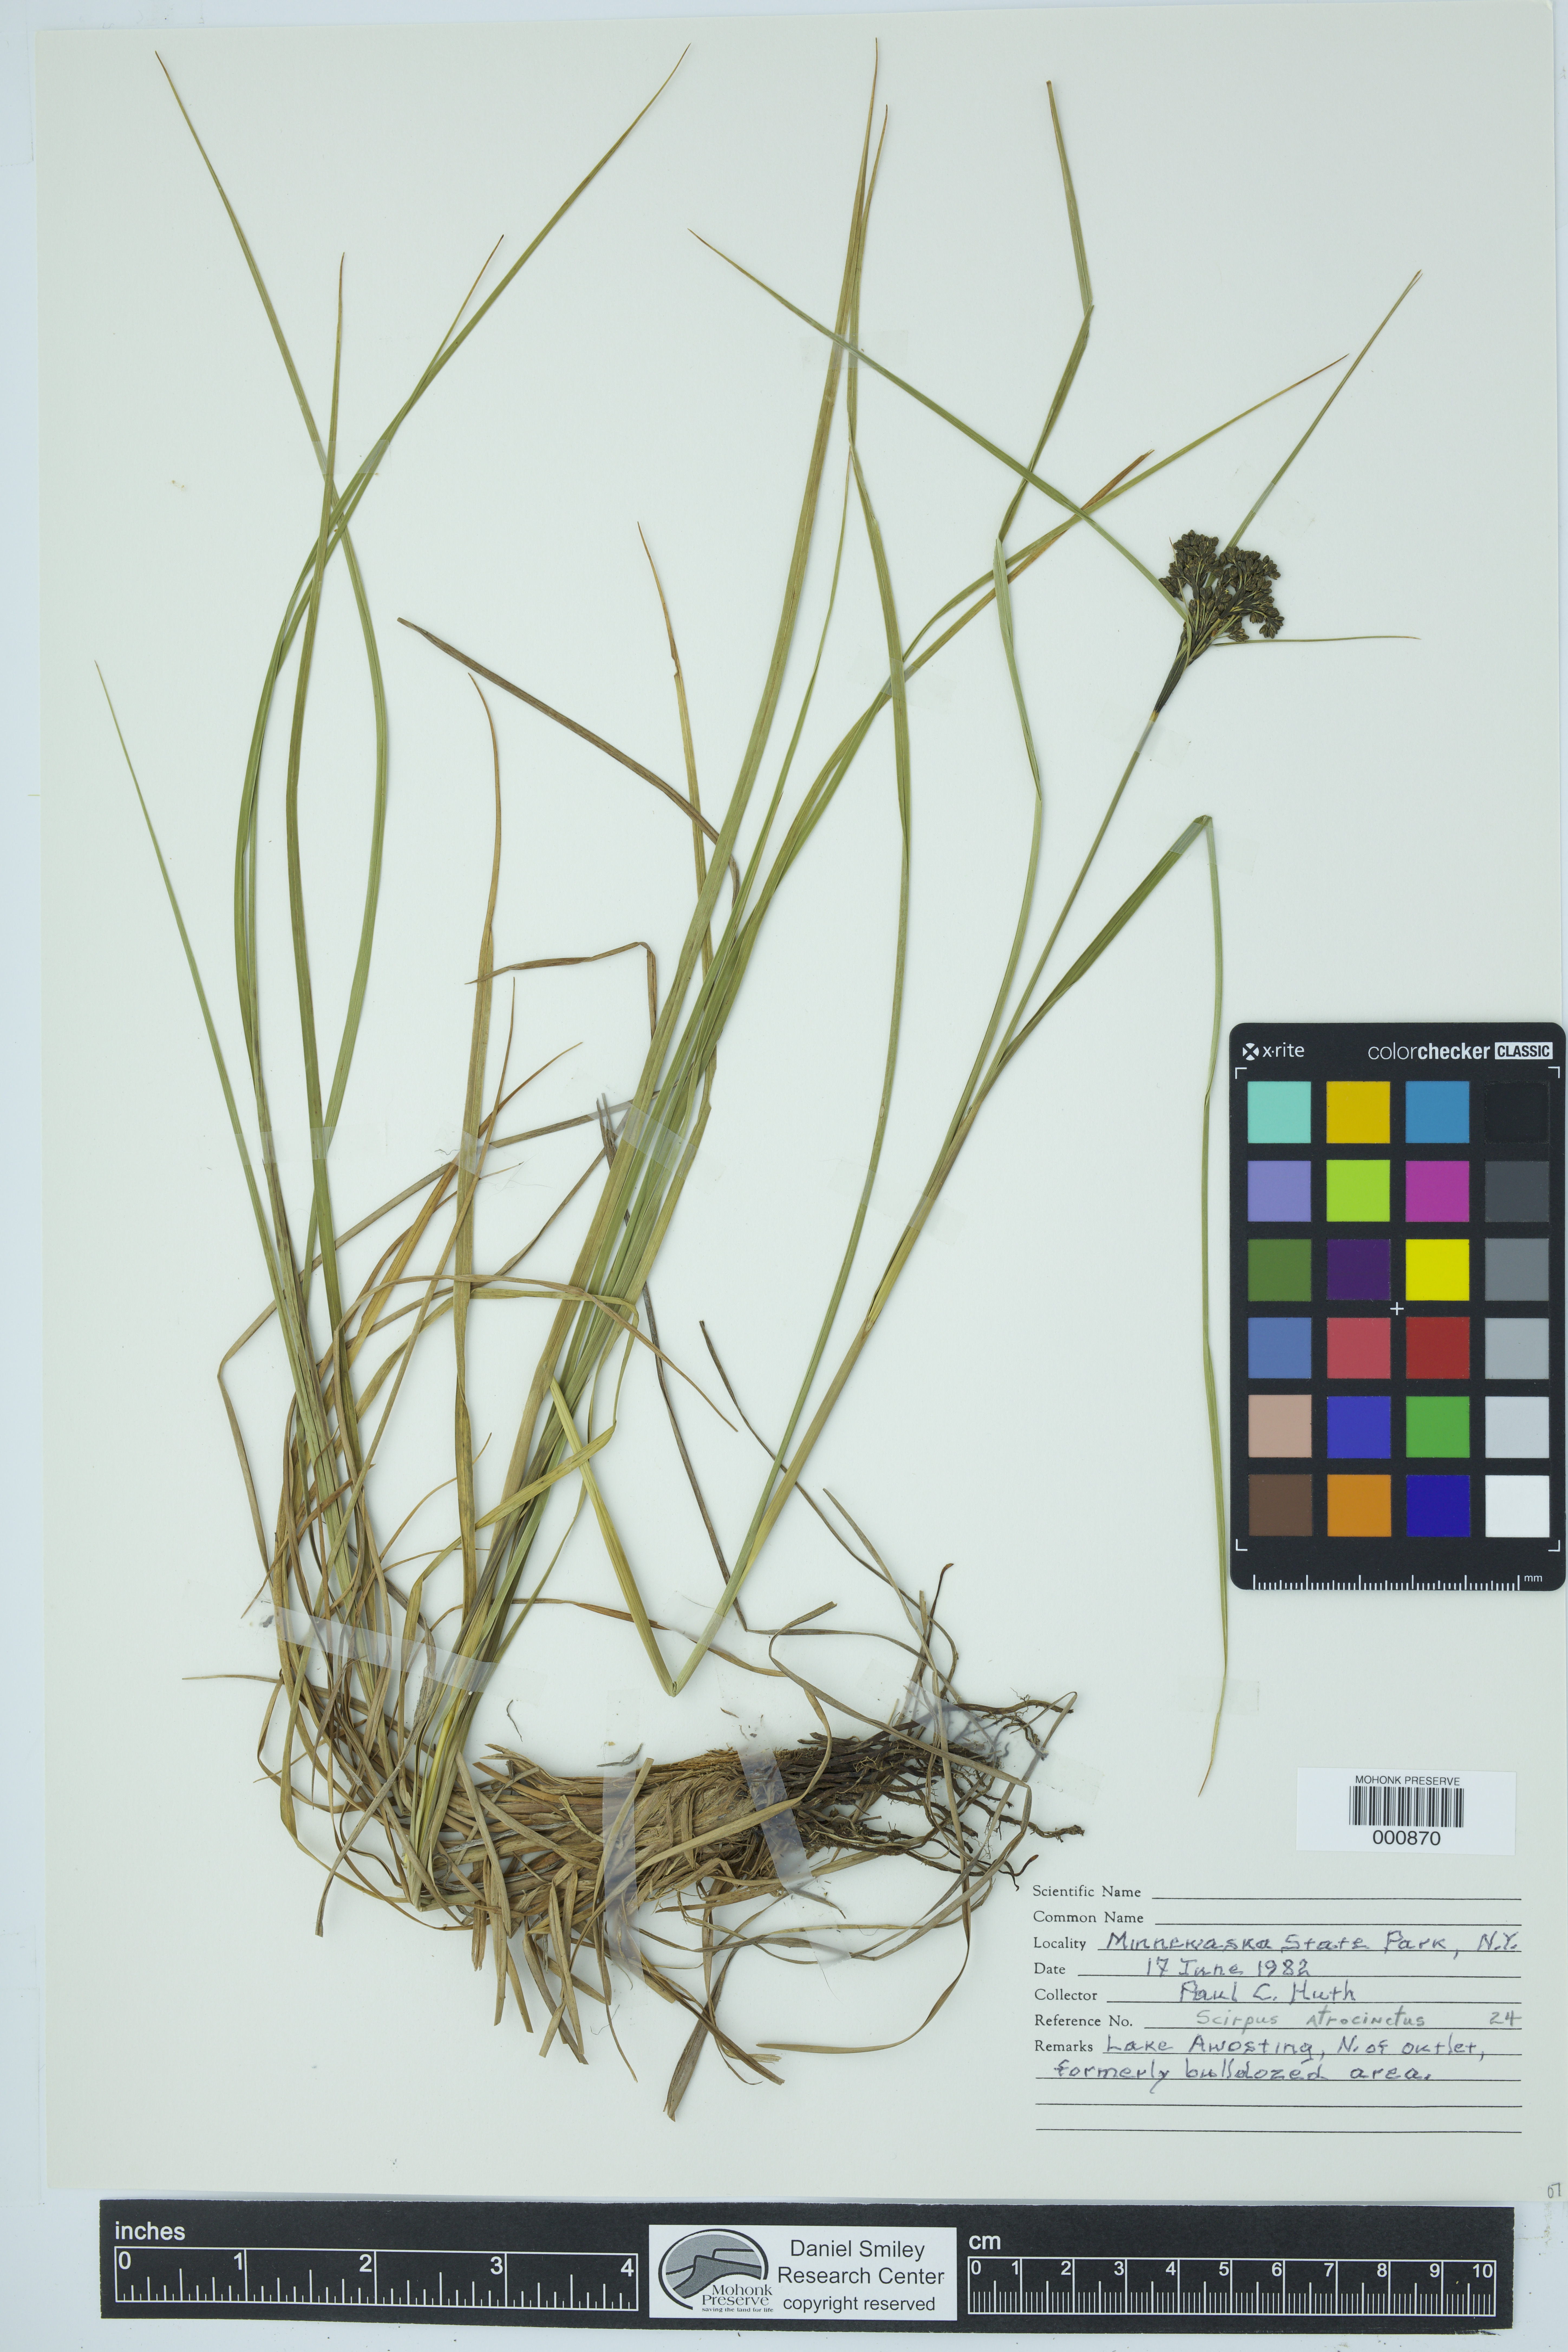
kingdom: Plantae
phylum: Tracheophyta
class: Liliopsida
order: Poales
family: Cyperaceae
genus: Scirpus
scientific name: Scirpus atrocinctus
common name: Black-girdled bulrush
